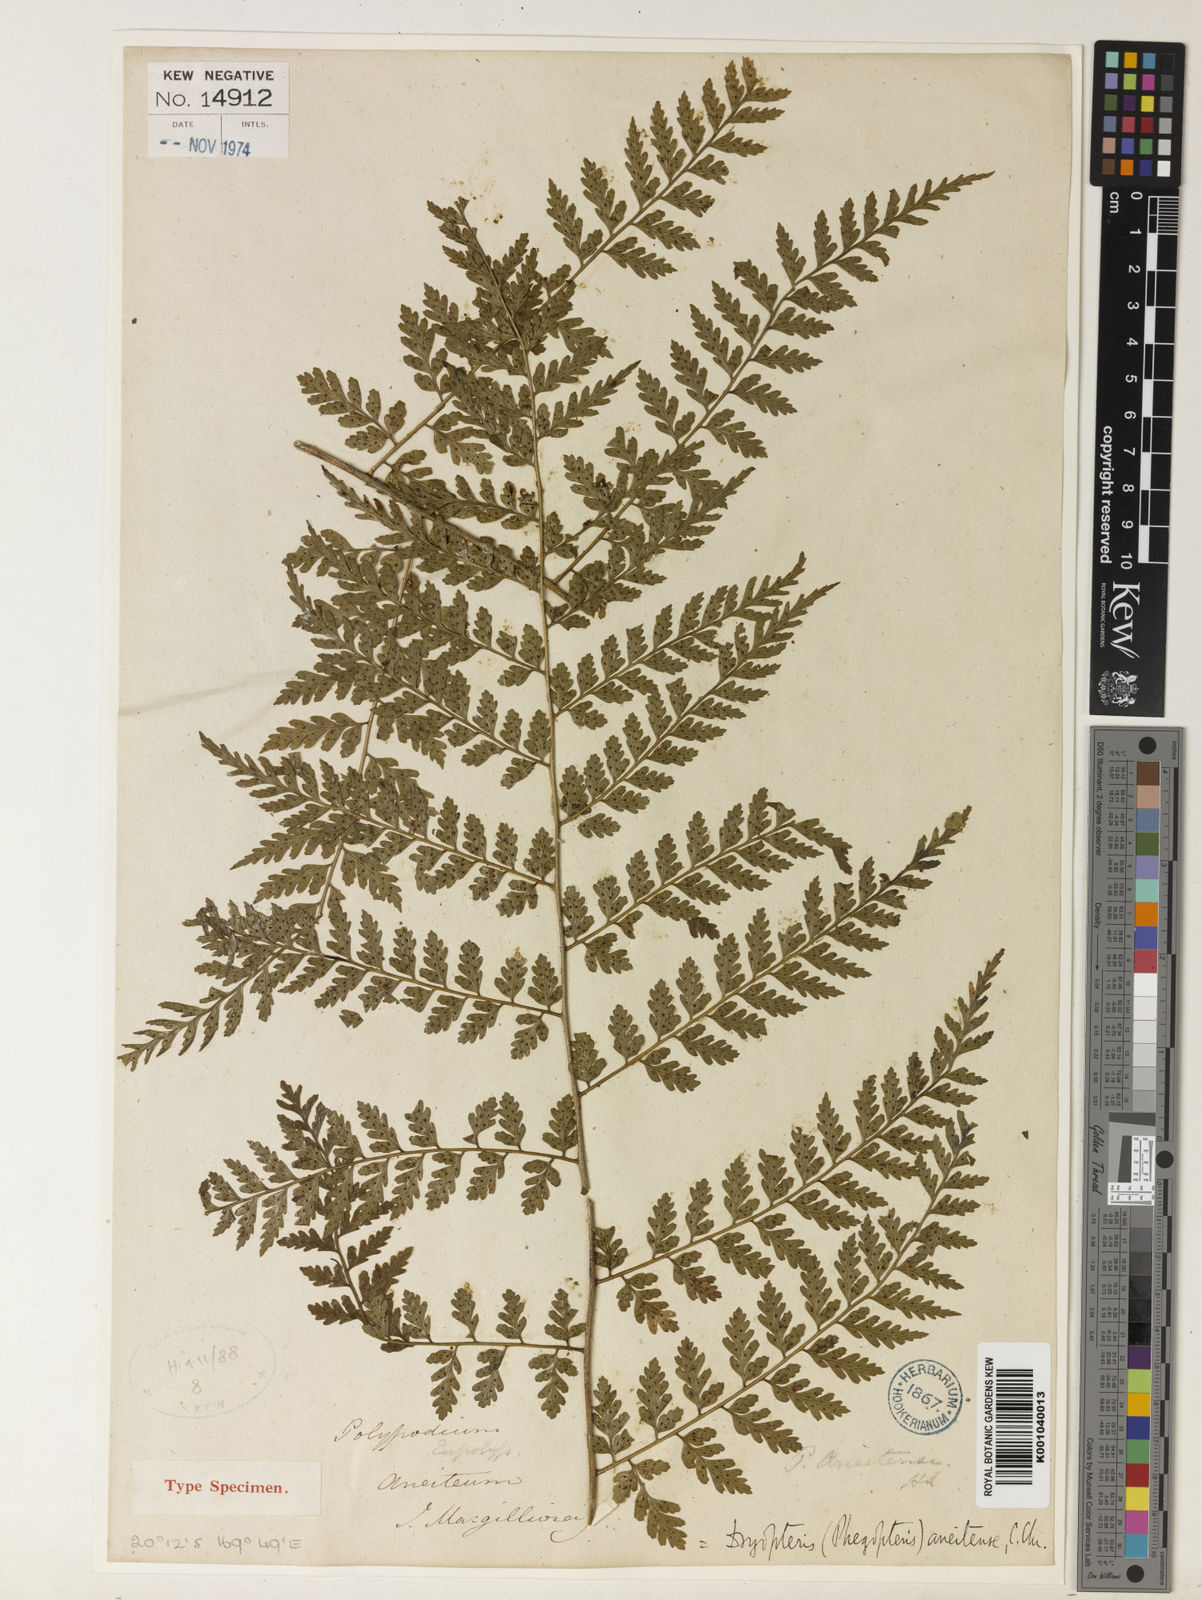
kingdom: Plantae
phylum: Tracheophyta
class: Polypodiopsida
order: Polypodiales
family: Dryopteridaceae
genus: Arachniodes
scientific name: Arachniodes
